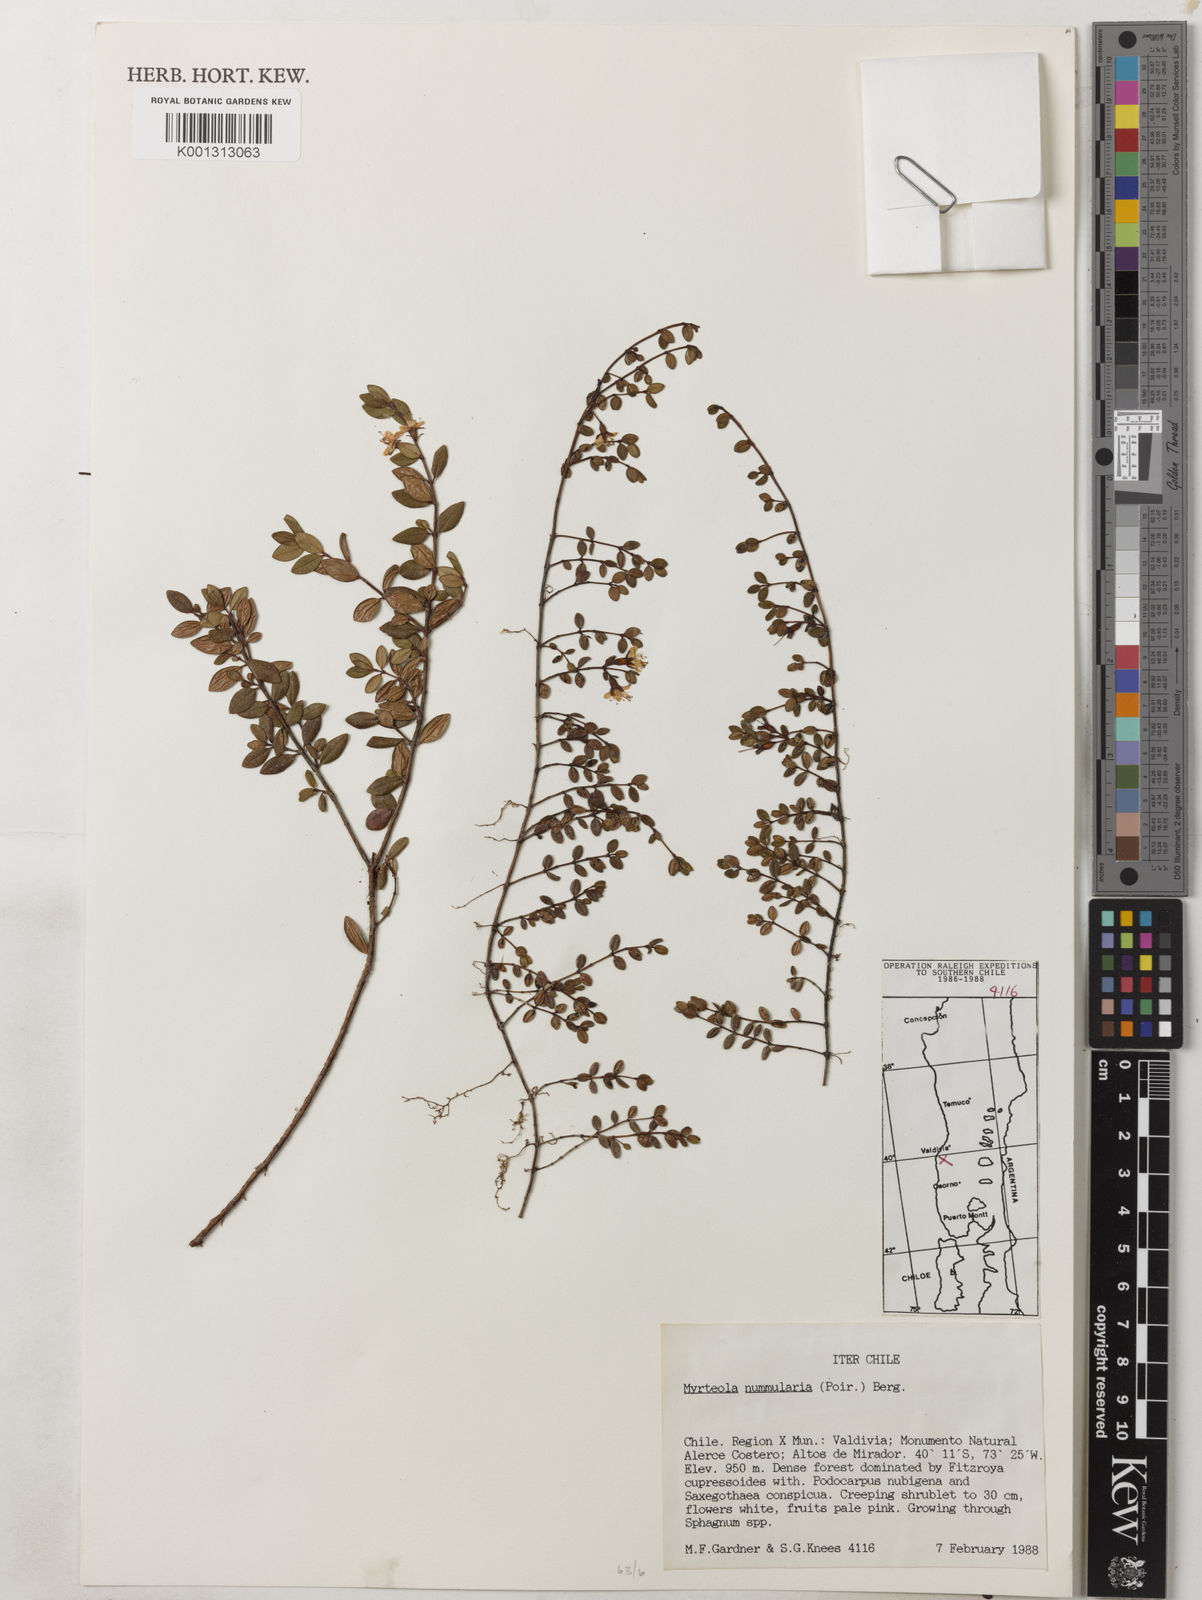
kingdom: Plantae
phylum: Tracheophyta
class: Magnoliopsida
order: Myrtales
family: Myrtaceae
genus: Myrteola
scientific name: Myrteola nummularia
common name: Cranberry-myrtle
